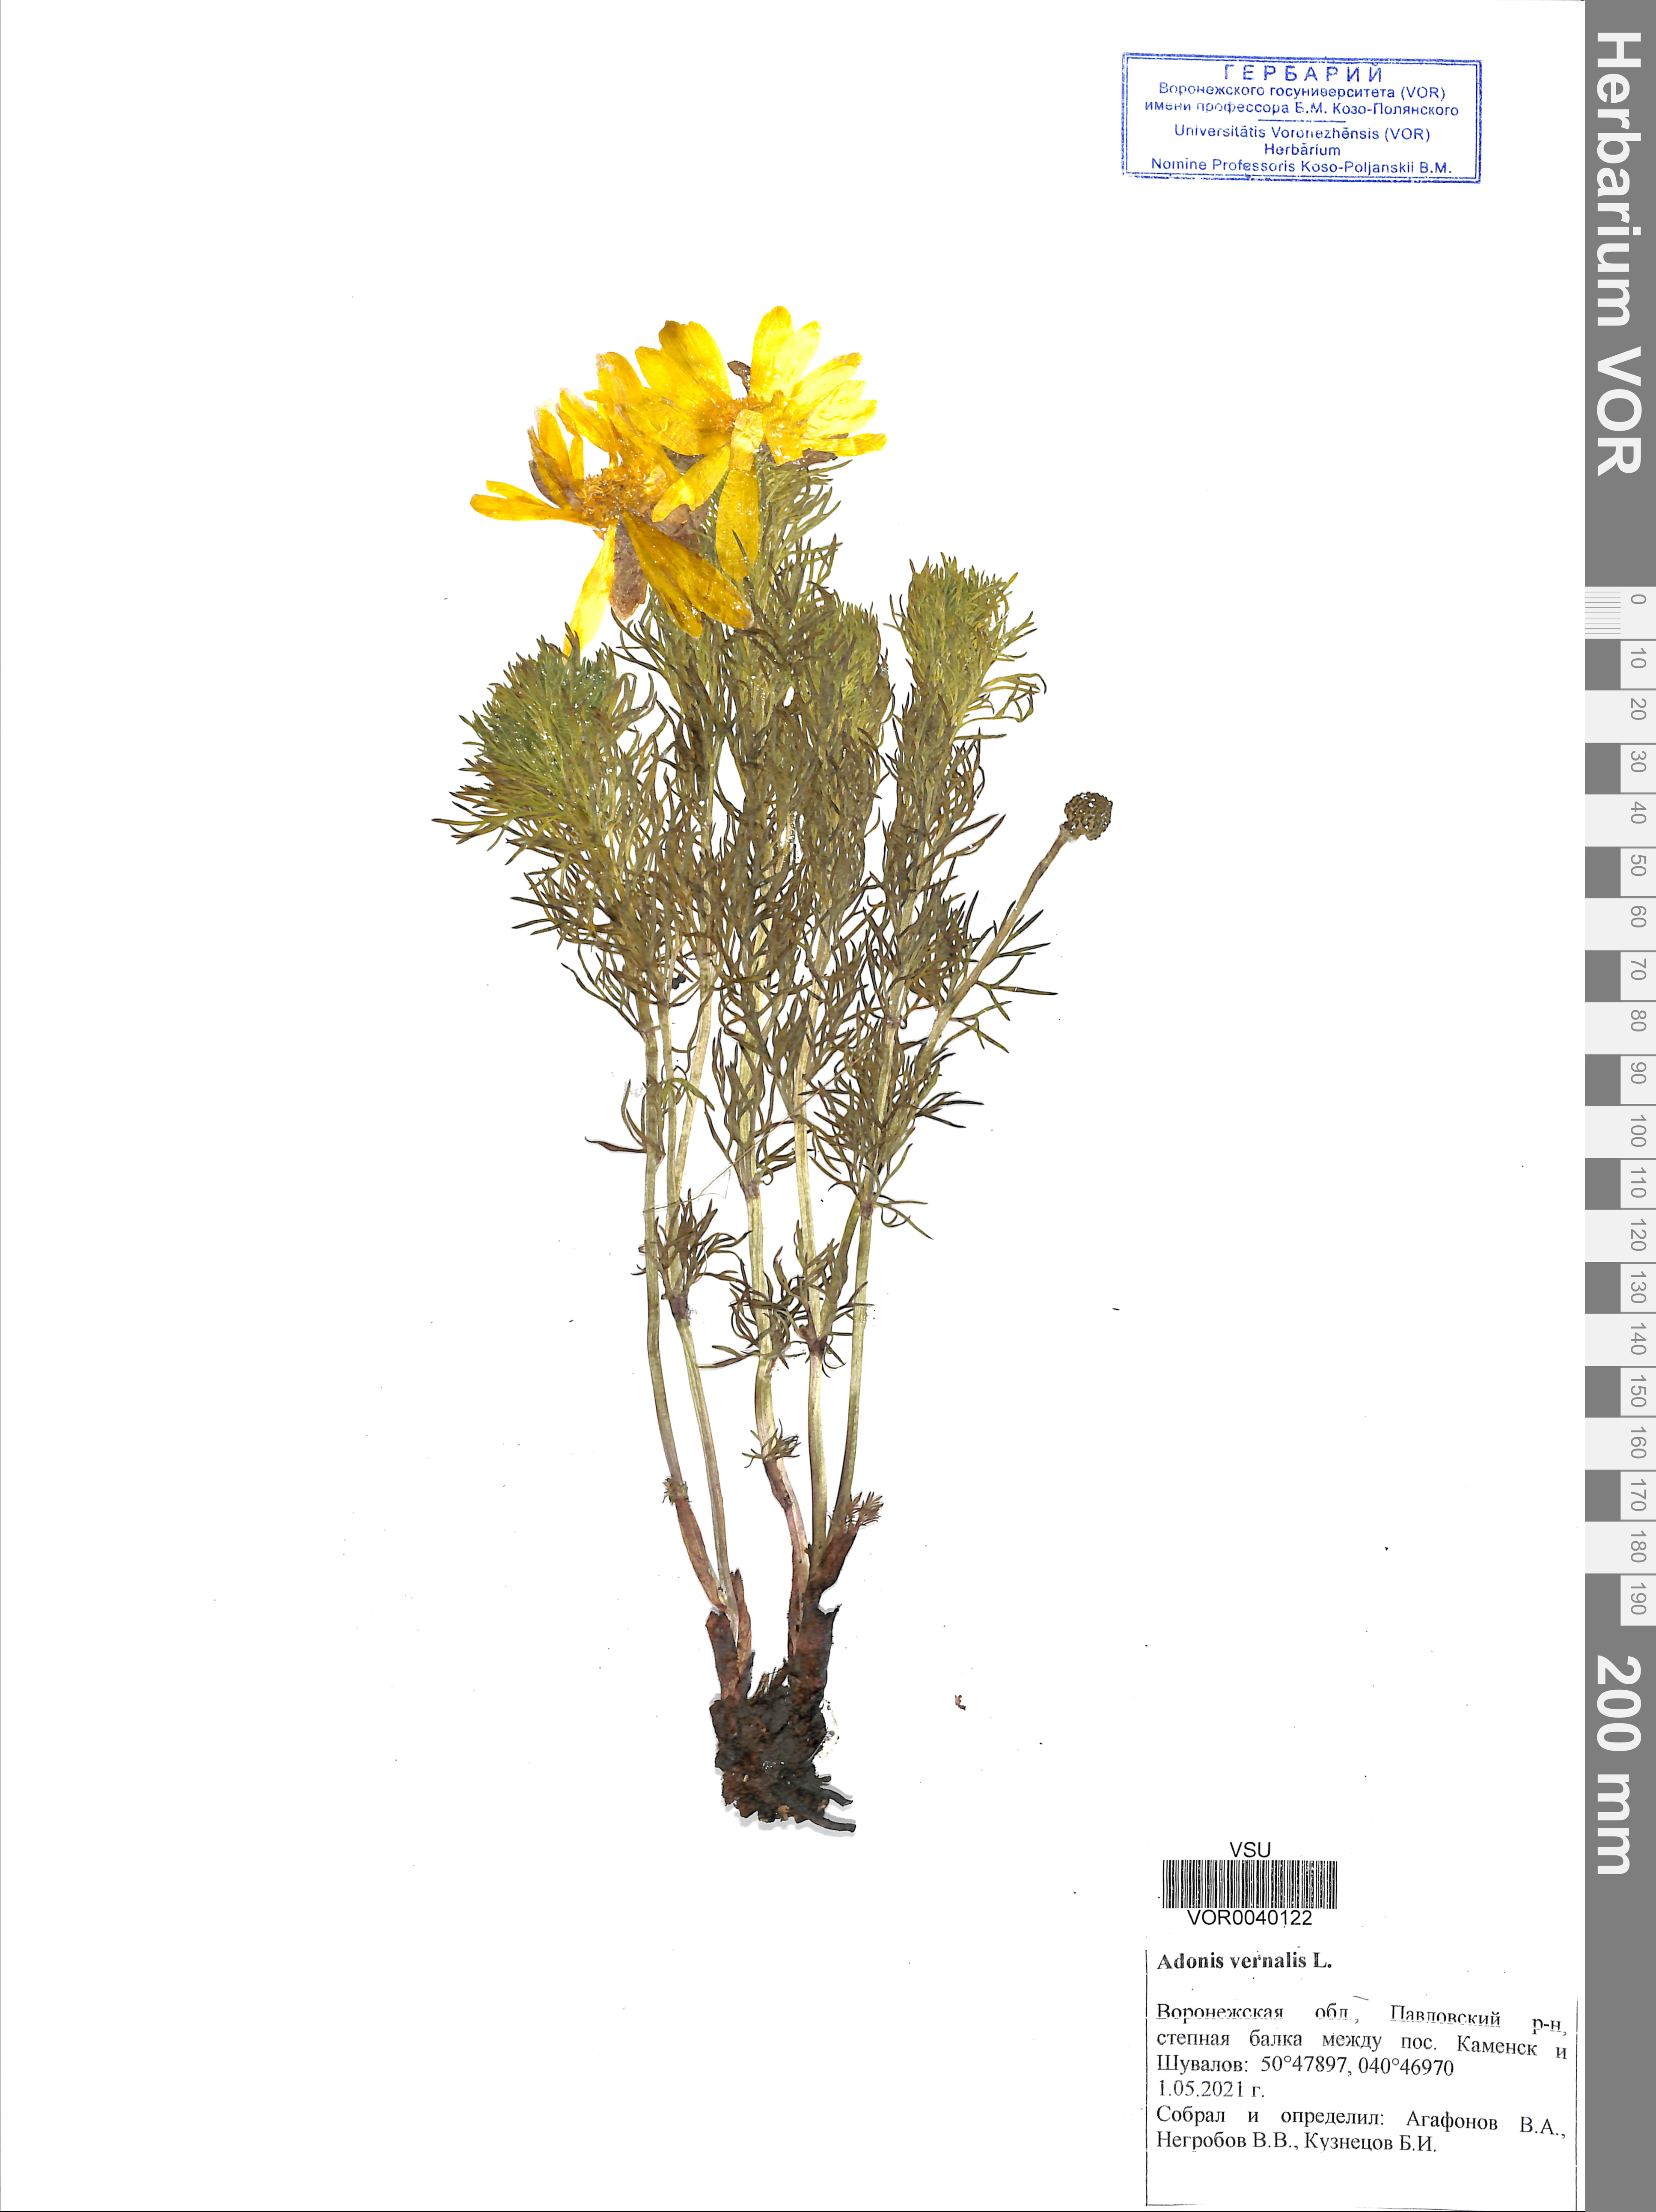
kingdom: Plantae
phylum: Tracheophyta
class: Magnoliopsida
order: Ranunculales
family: Ranunculaceae
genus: Adonis
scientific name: Adonis vernalis
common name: Yellow pheasants-eye
